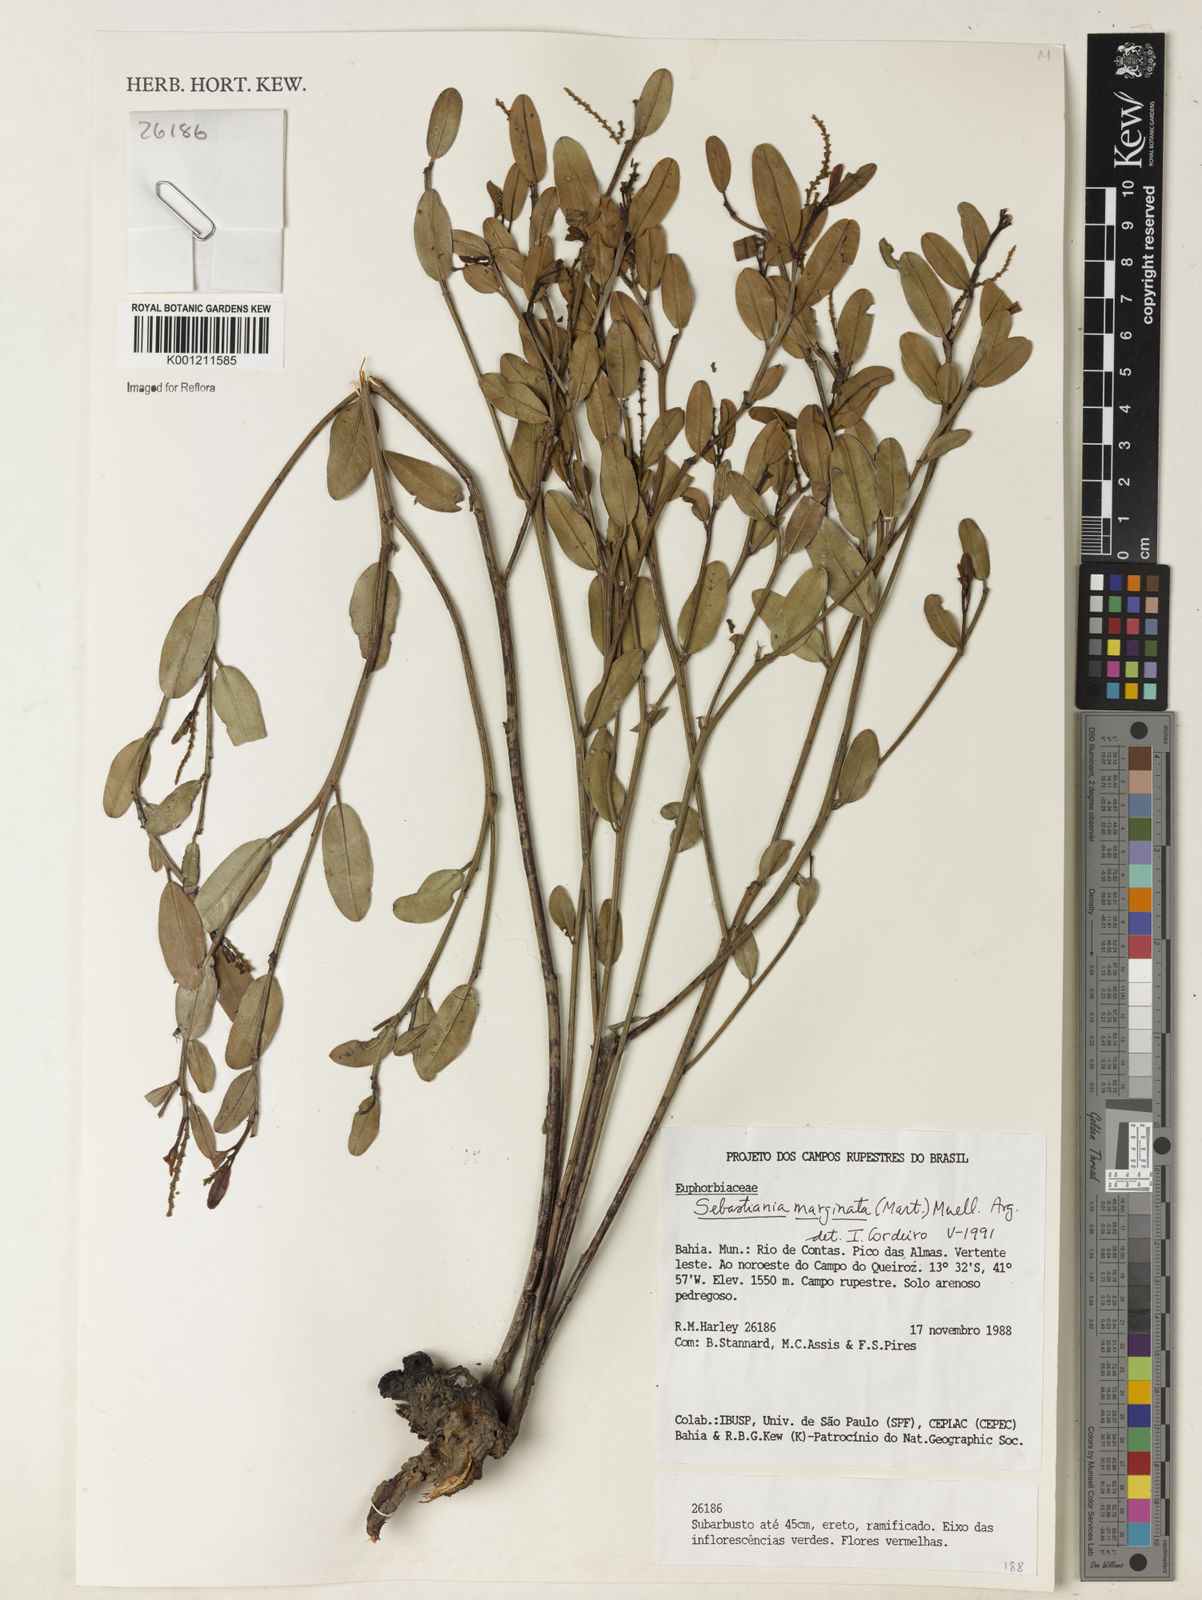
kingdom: Plantae
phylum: Tracheophyta
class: Magnoliopsida
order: Malpighiales
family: Euphorbiaceae
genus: Microstachys
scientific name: Microstachys
